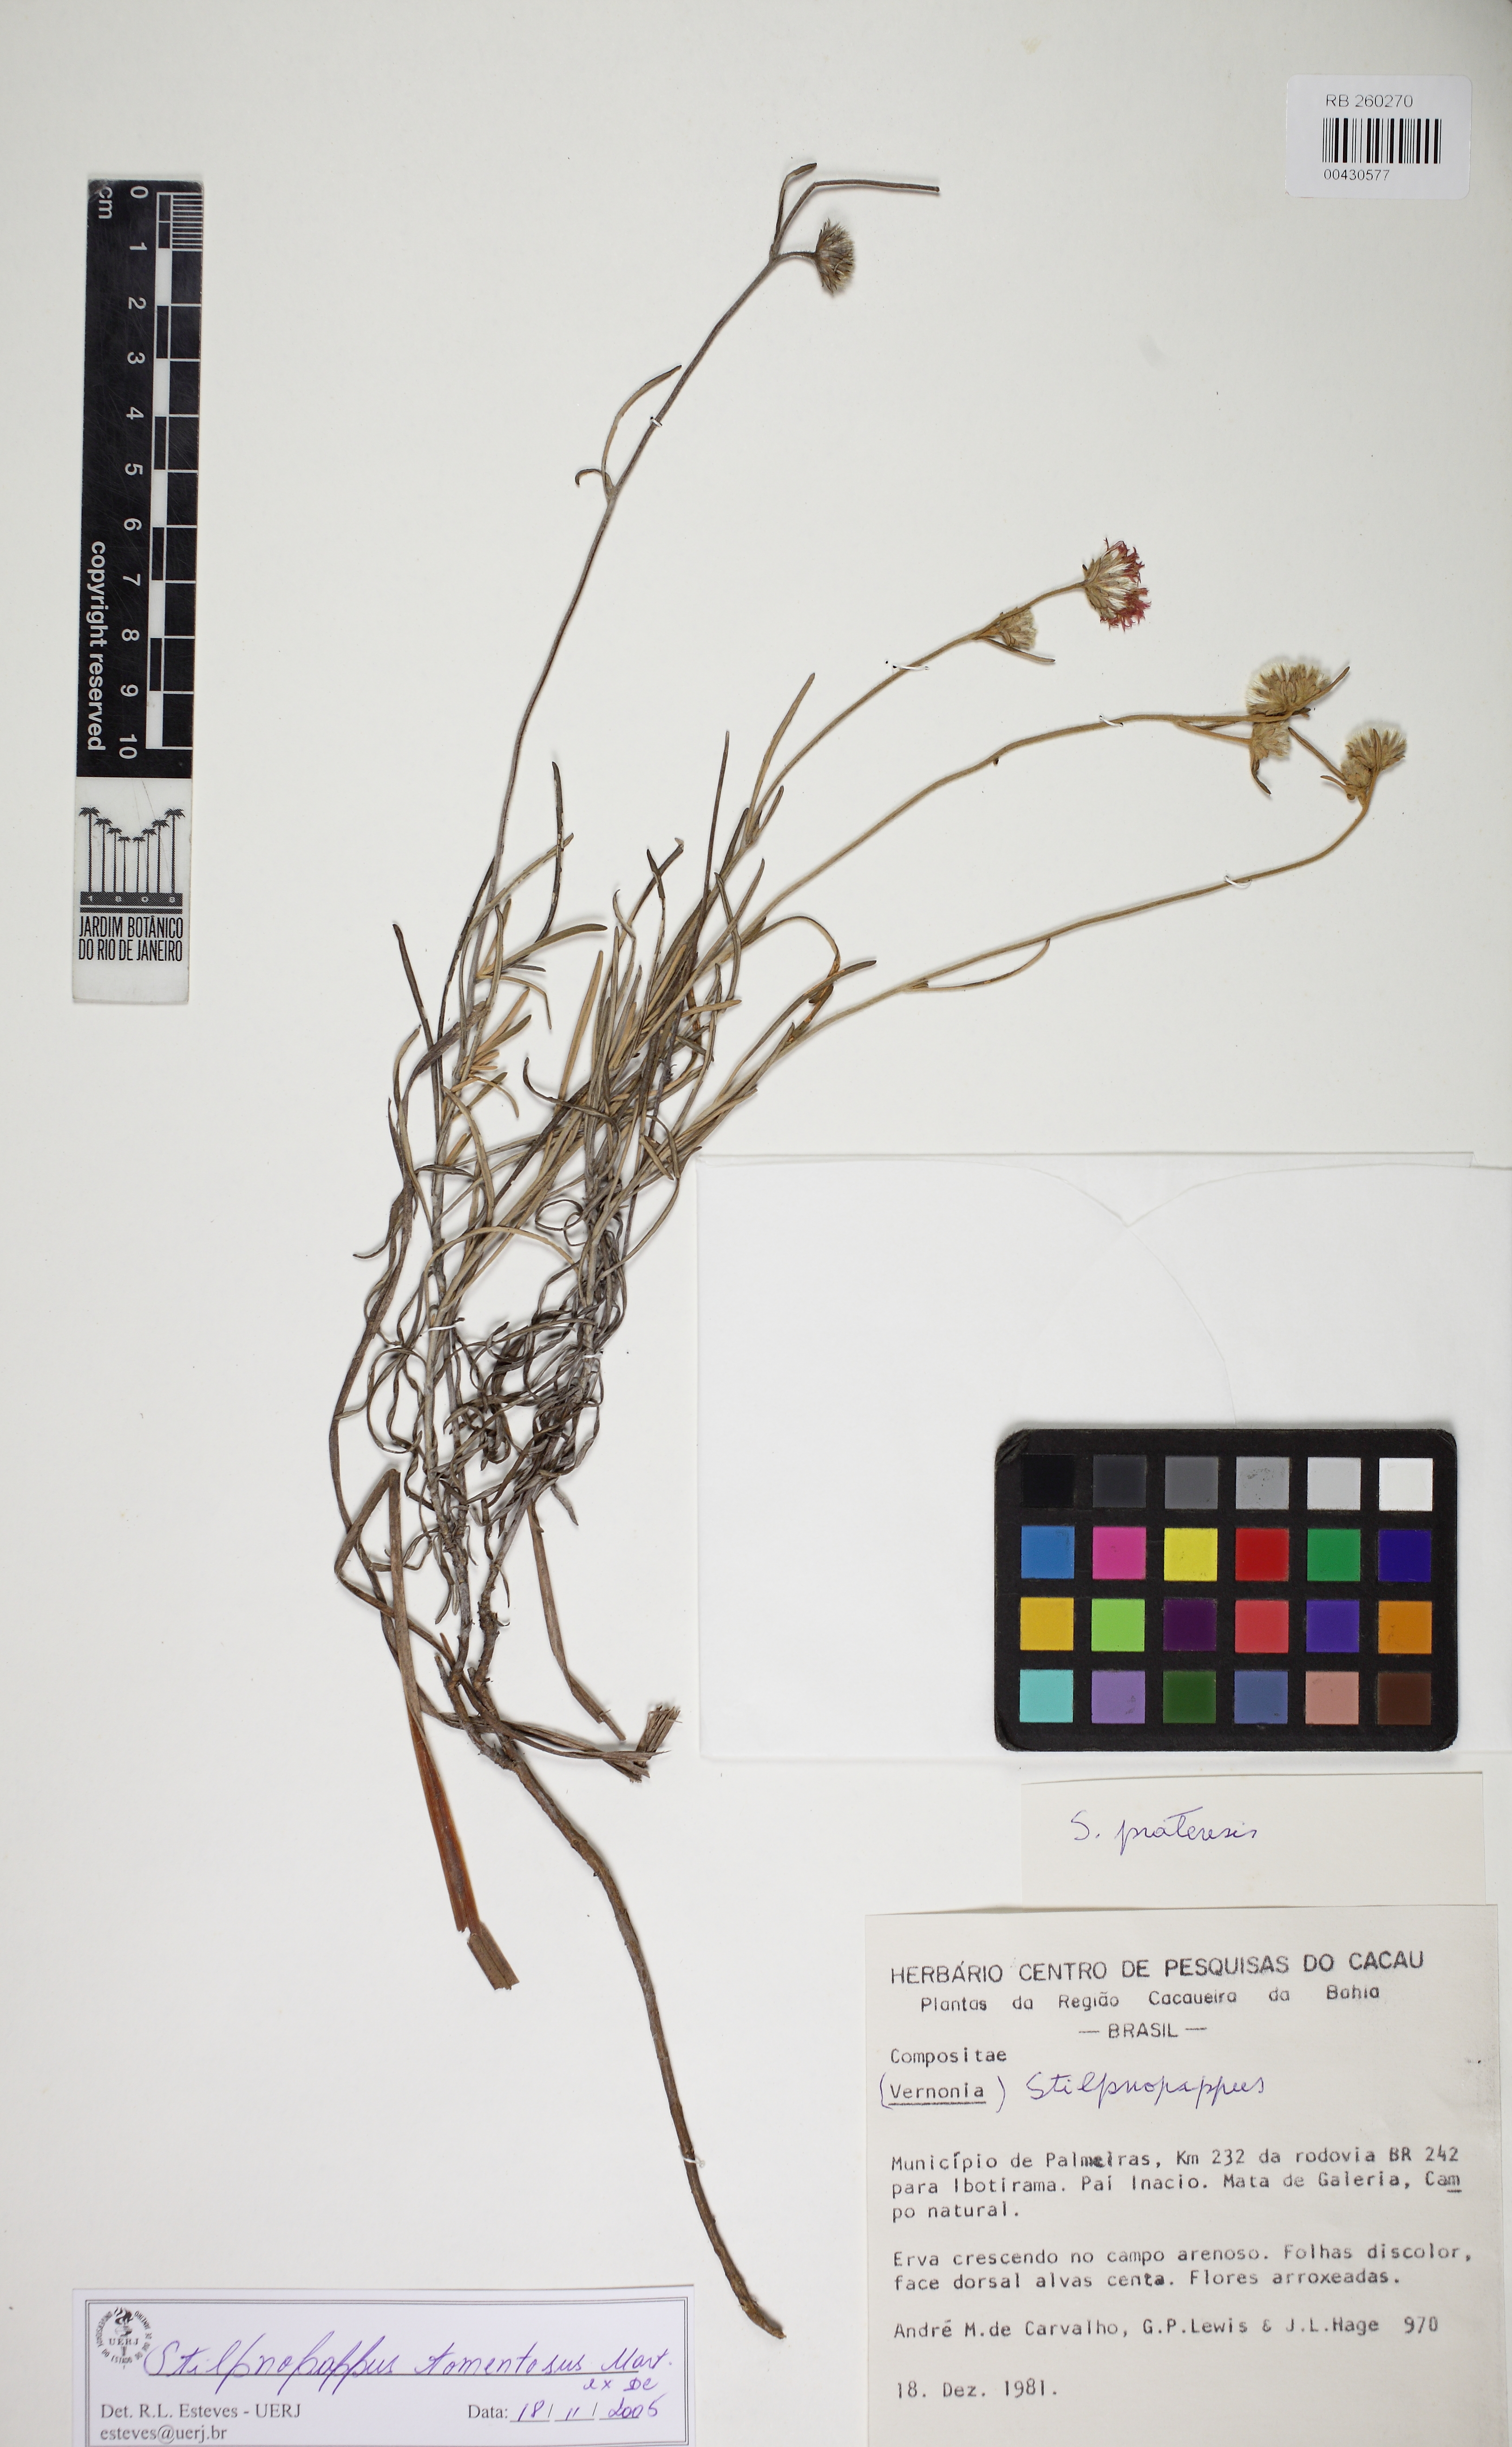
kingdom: Plantae
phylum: Tracheophyta
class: Magnoliopsida
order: Asterales
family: Asteraceae
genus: Stilpnopappus
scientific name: Stilpnopappus tomentosus
